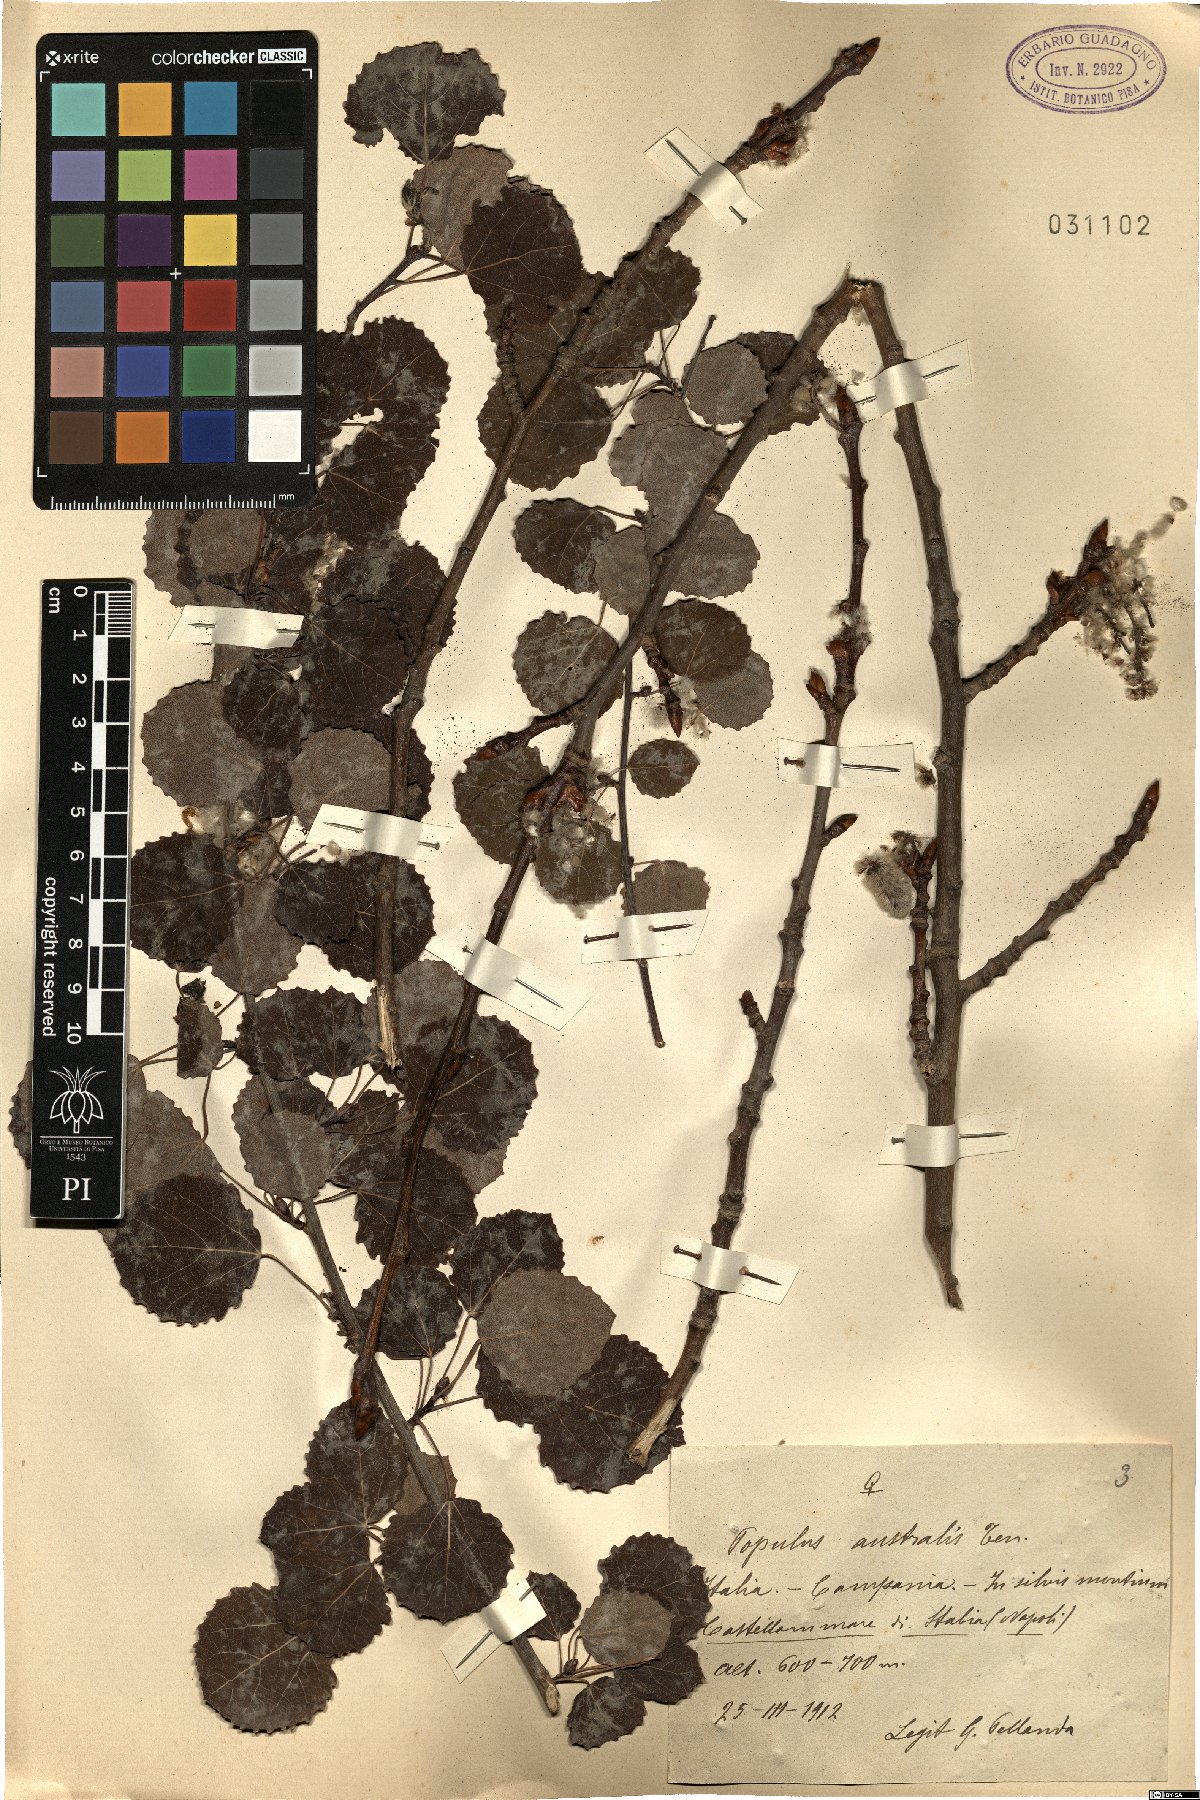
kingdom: Plantae
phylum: Tracheophyta
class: Magnoliopsida
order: Malpighiales
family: Salicaceae
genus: Populus
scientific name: Populus tremula
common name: European aspen
